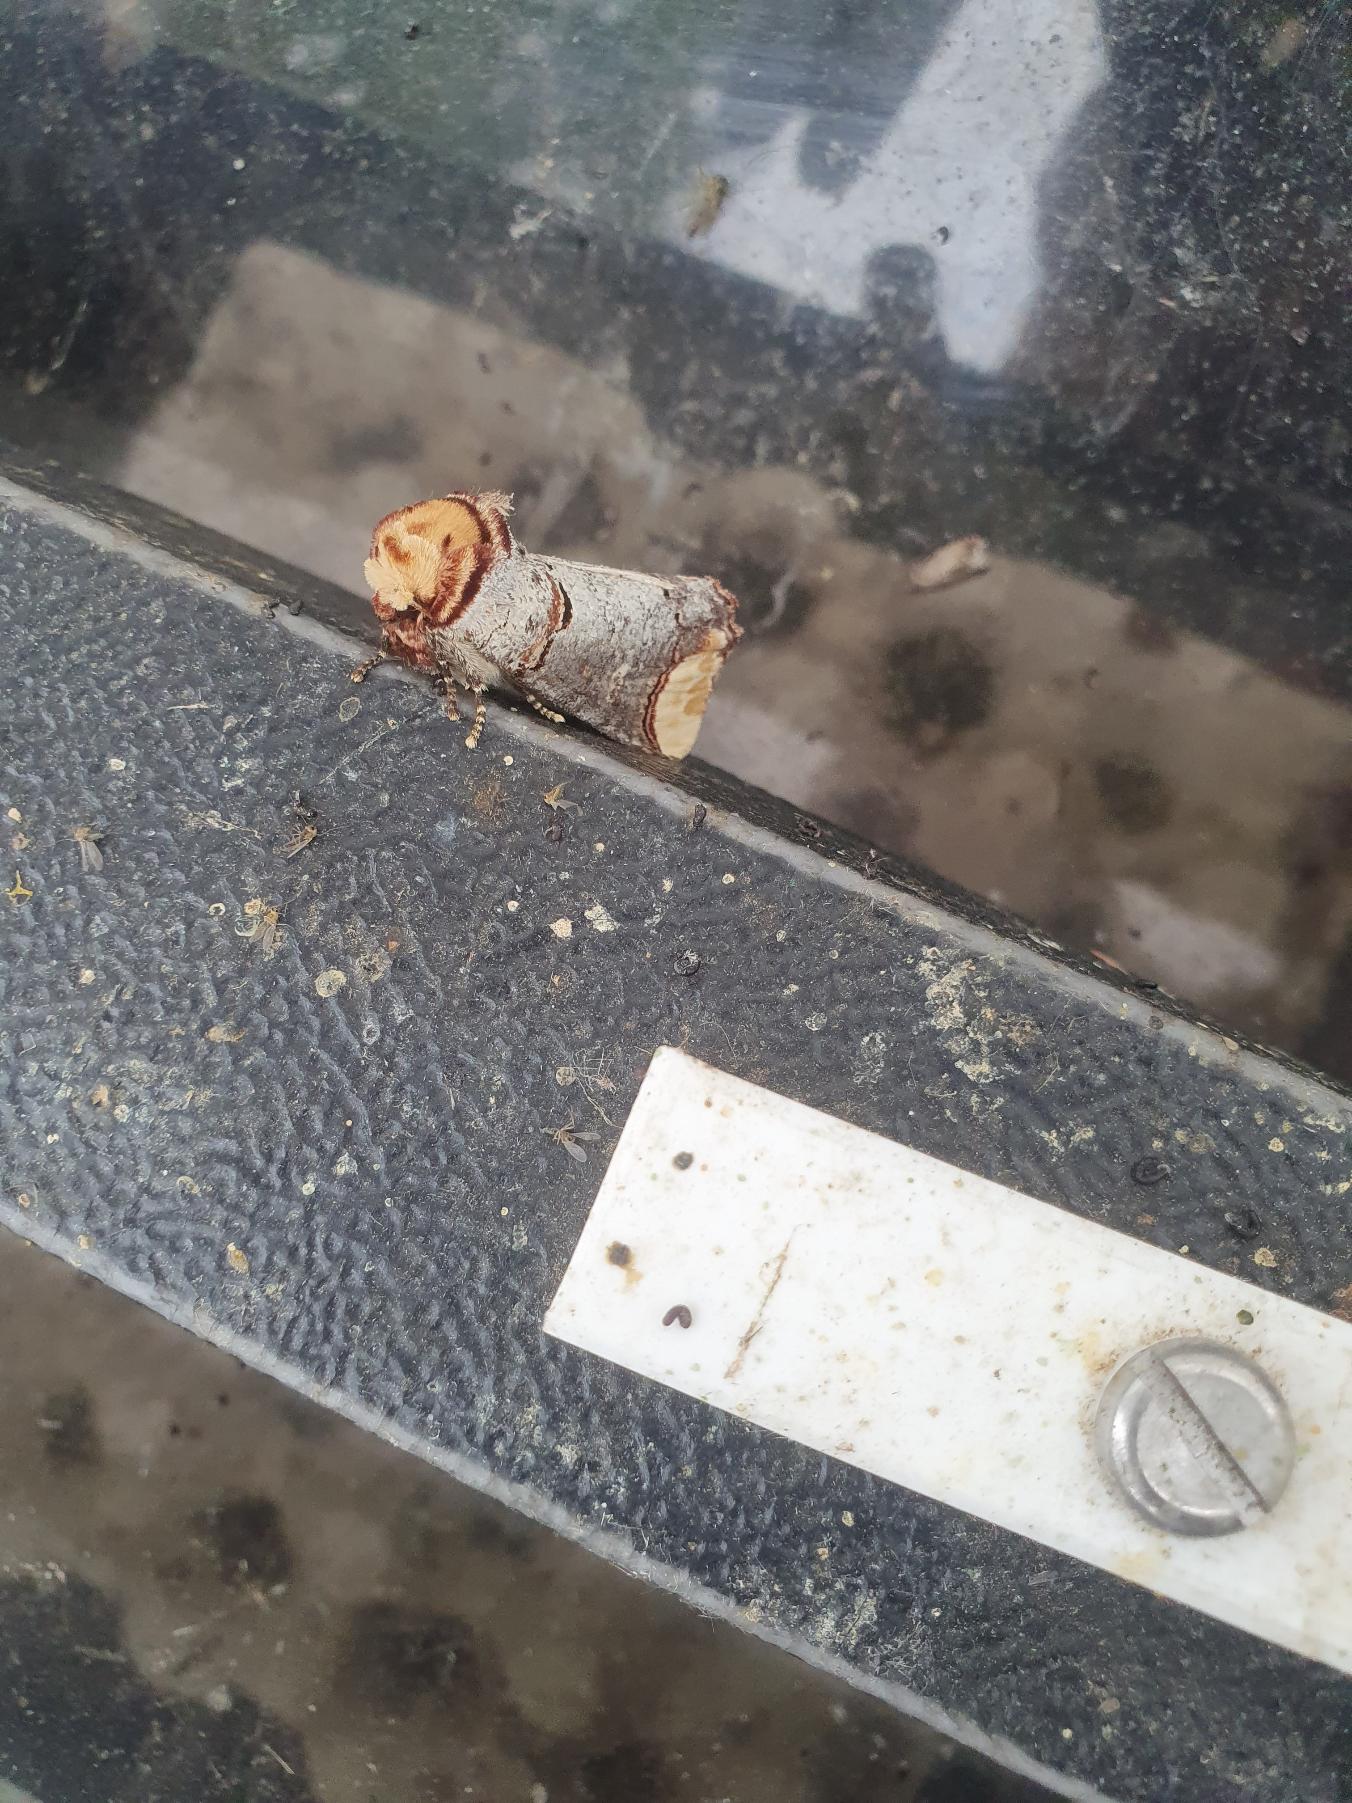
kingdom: Animalia
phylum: Arthropoda
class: Insecta
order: Lepidoptera
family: Notodontidae
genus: Phalera
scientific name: Phalera bucephala
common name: Måneplet
